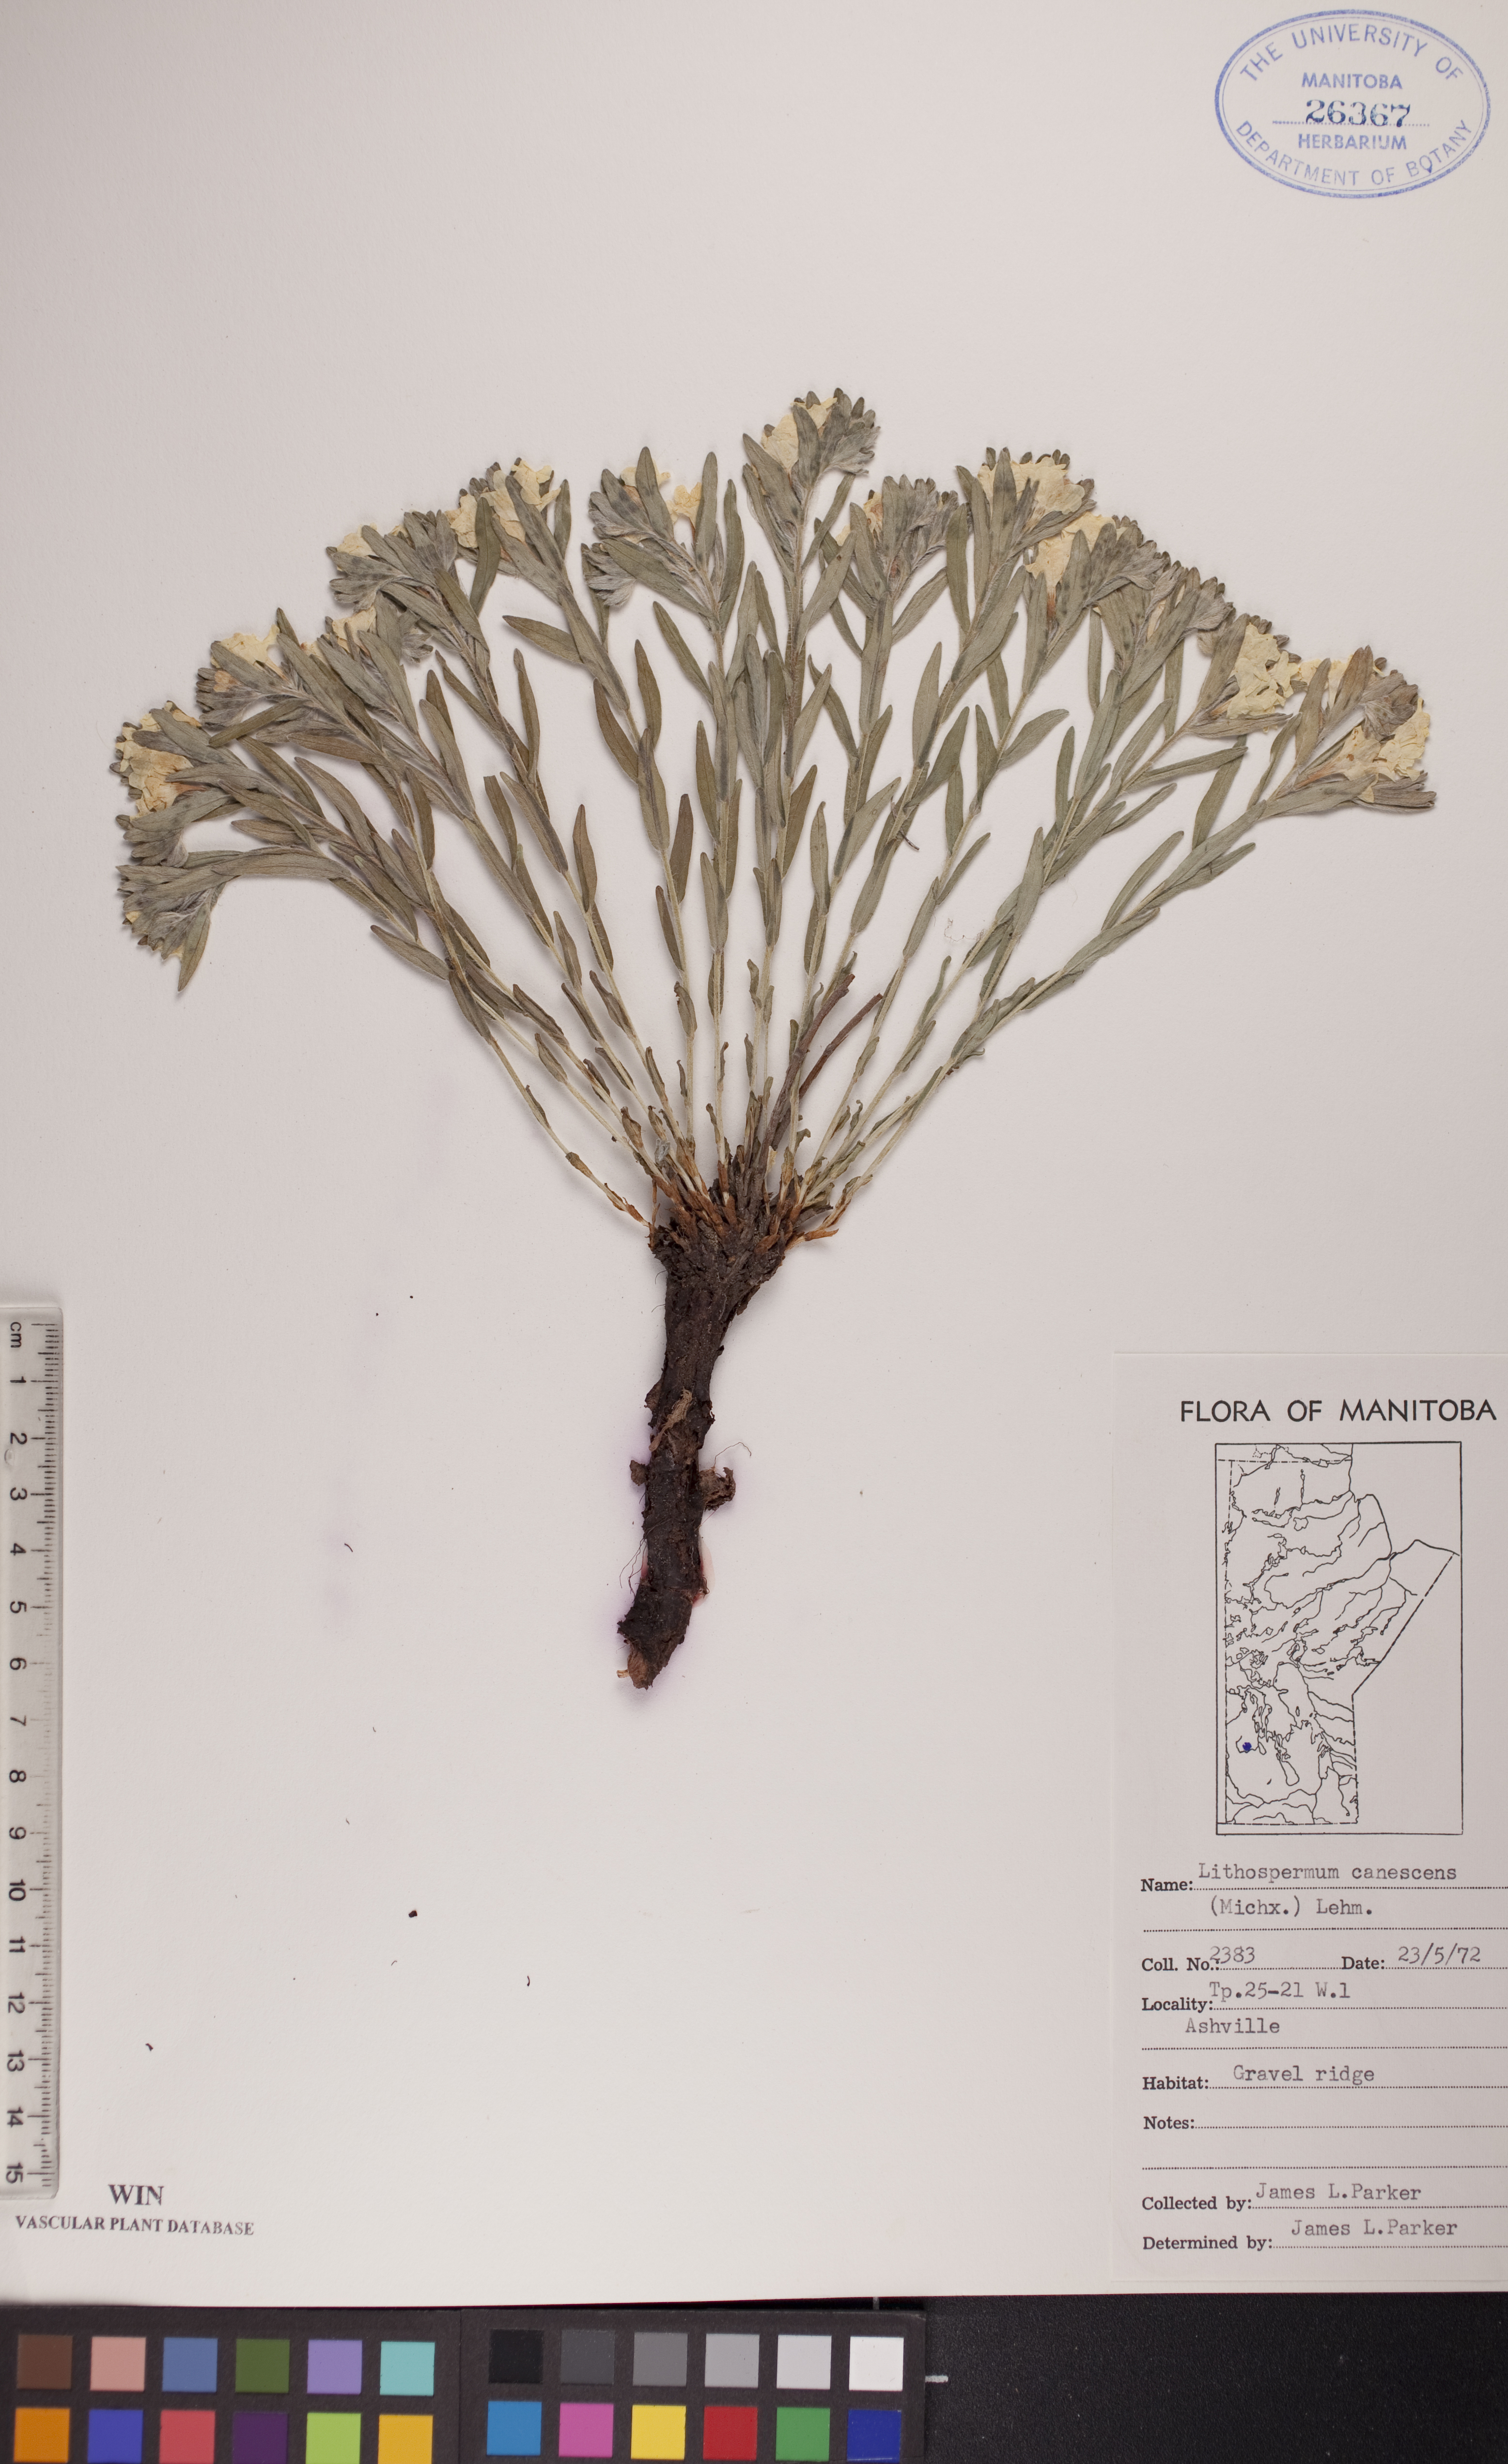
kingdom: Plantae
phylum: Tracheophyta
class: Magnoliopsida
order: Boraginales
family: Boraginaceae
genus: Lithospermum
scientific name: Lithospermum canescens
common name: Hoary puccoon
